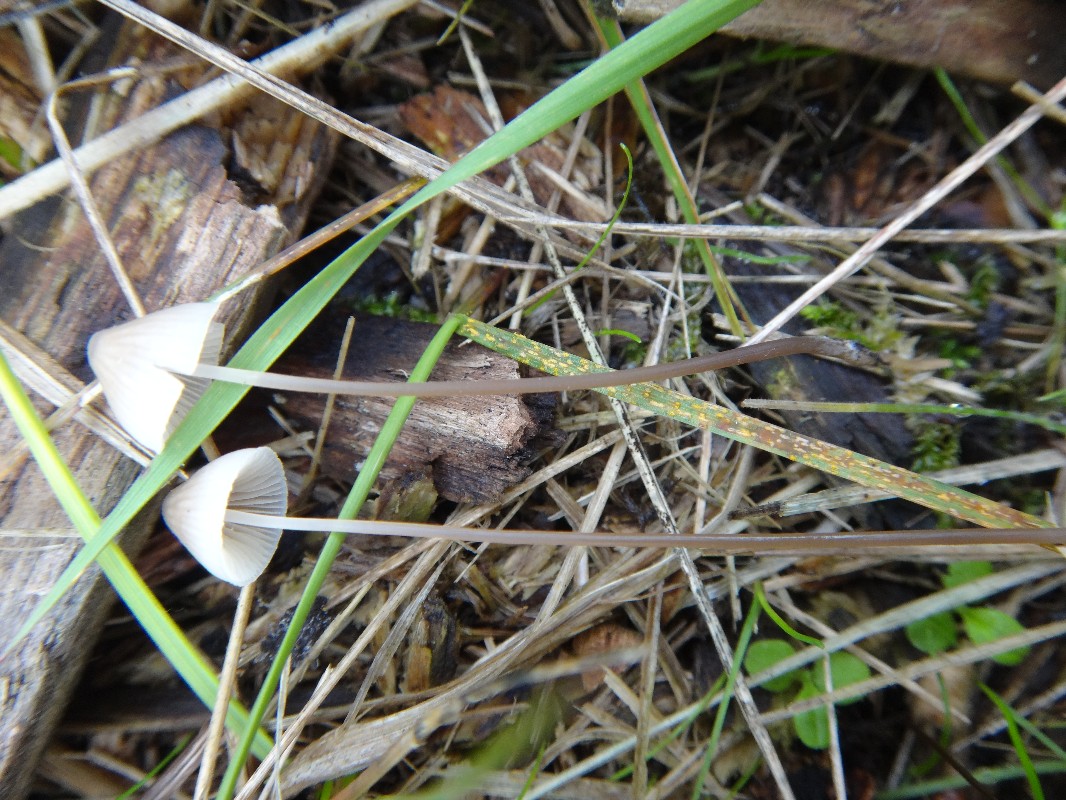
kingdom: Fungi
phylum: Basidiomycota
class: Agaricomycetes
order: Agaricales
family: Mycenaceae
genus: Mycena
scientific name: Mycena leptocephala
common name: klor-huesvamp
